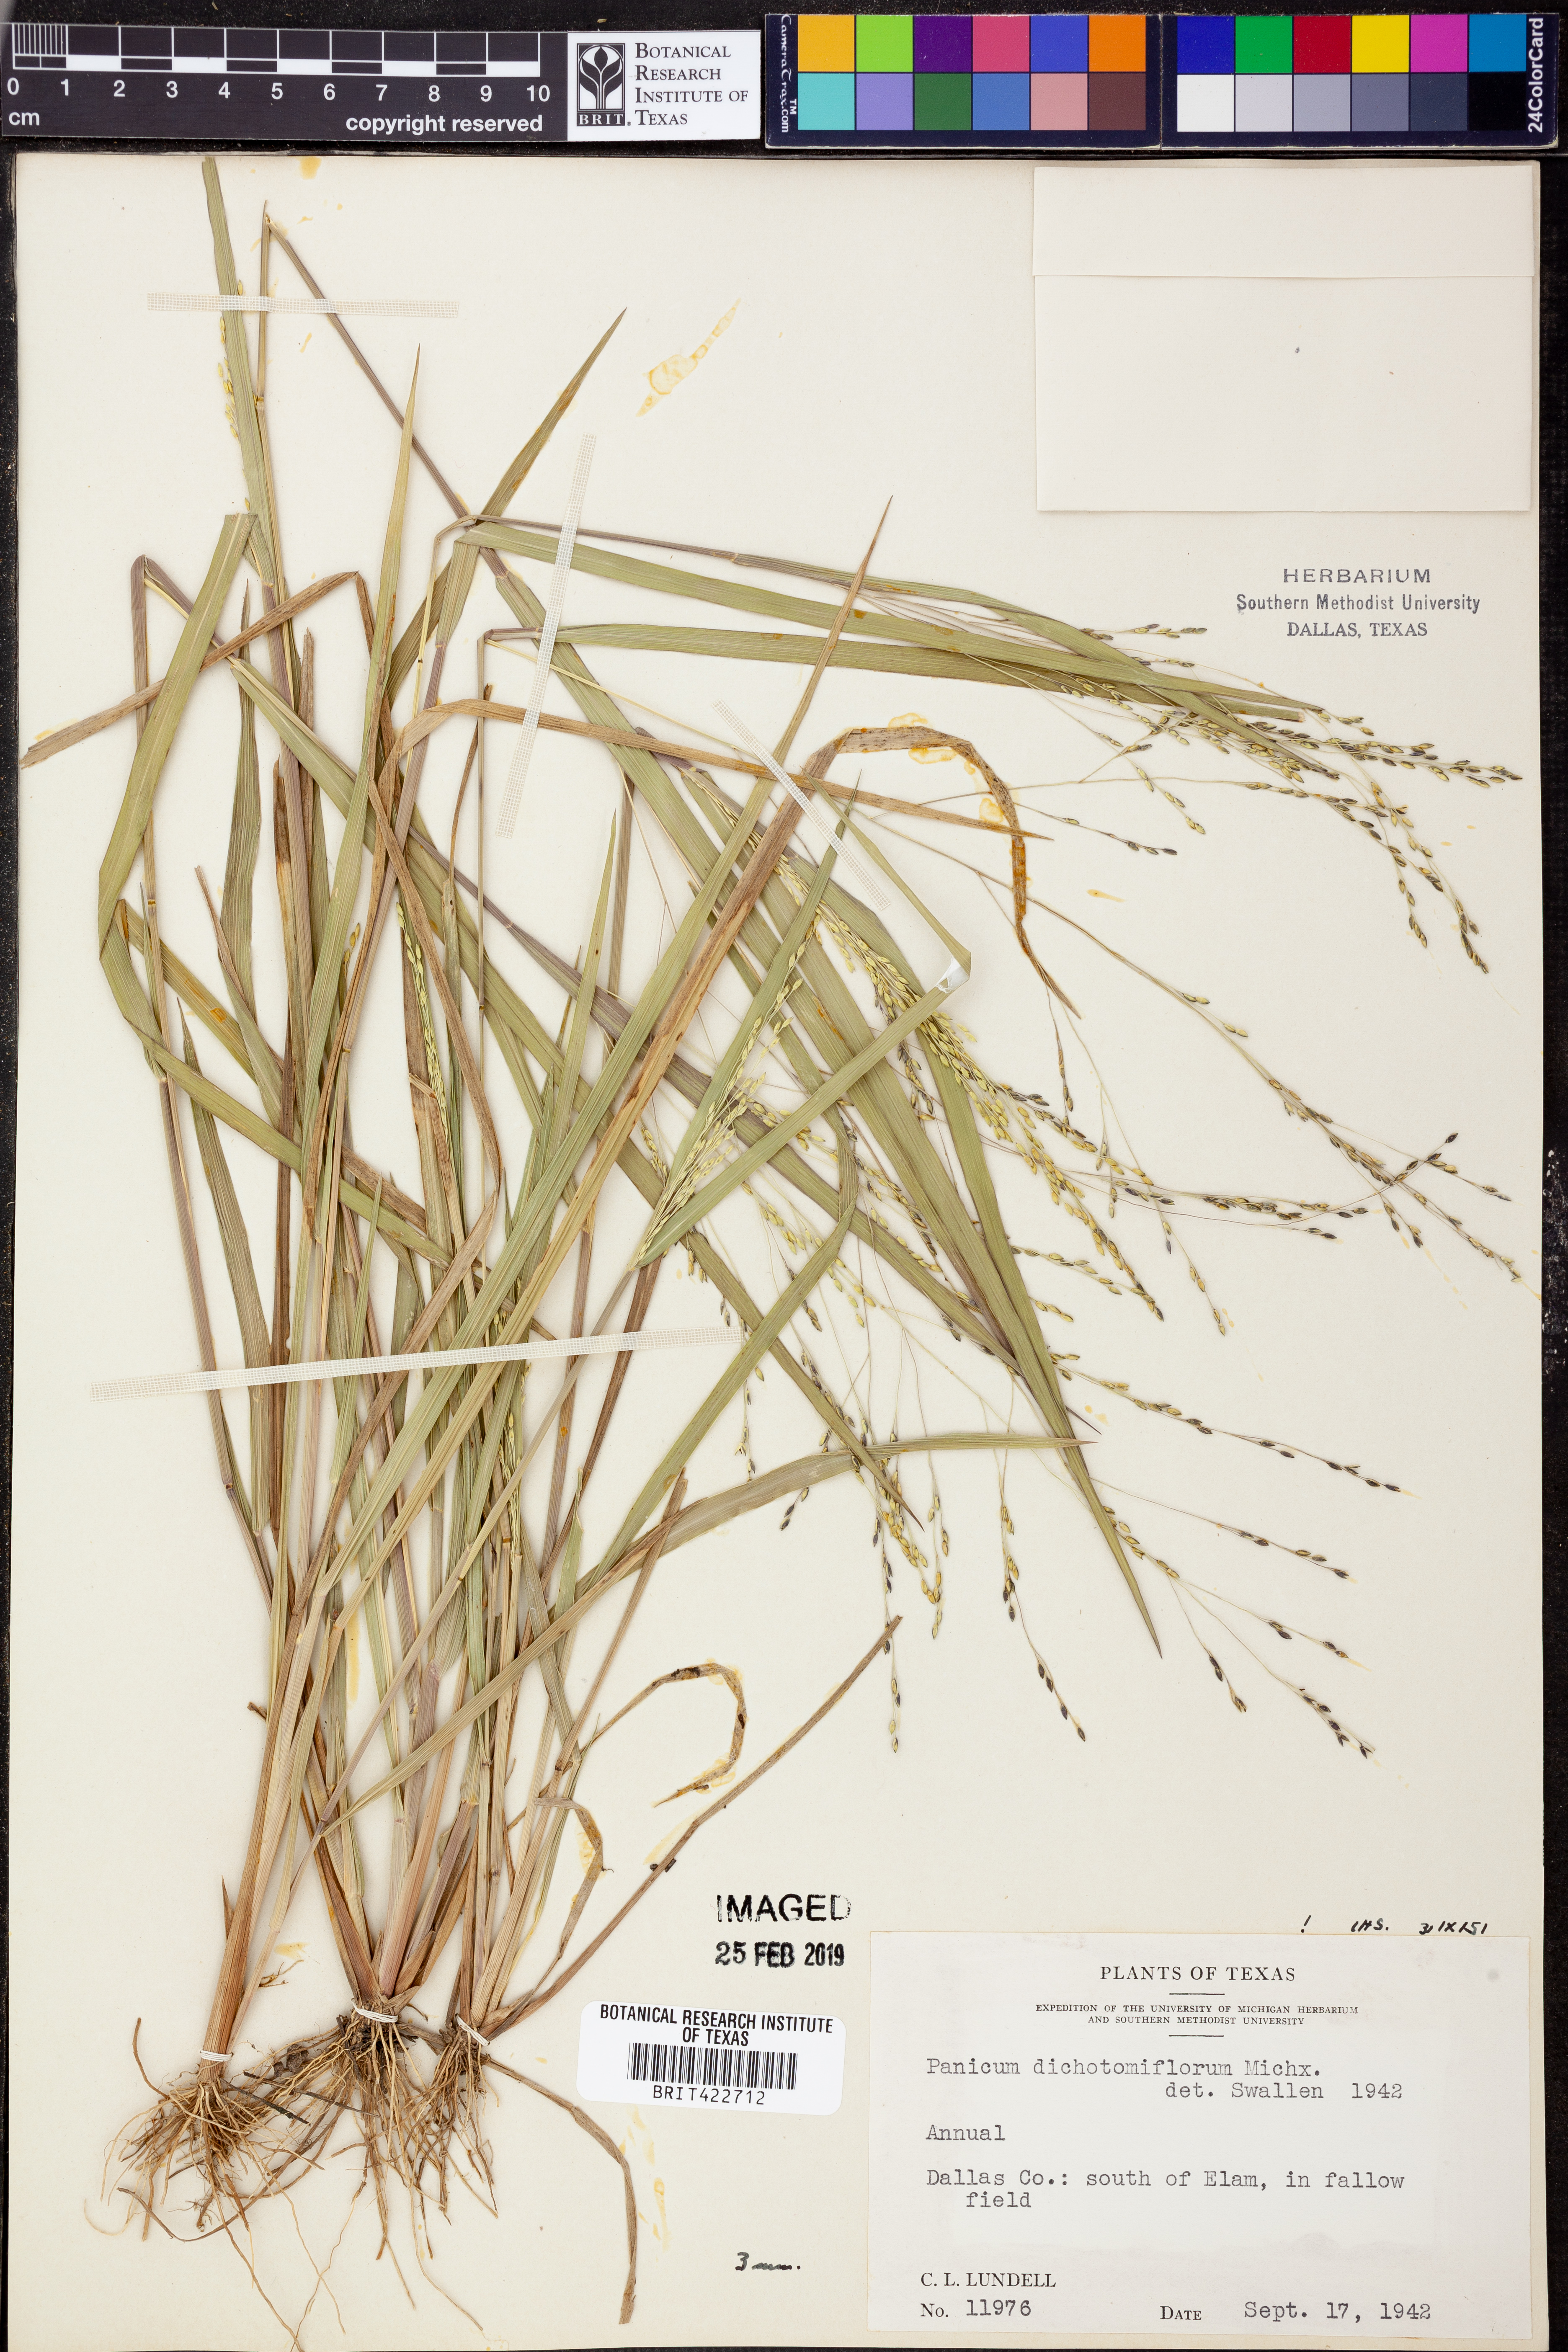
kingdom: Plantae
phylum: Tracheophyta
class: Liliopsida
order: Poales
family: Poaceae
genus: Panicum
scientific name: Panicum dichotomiflorum
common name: Autumn millet
